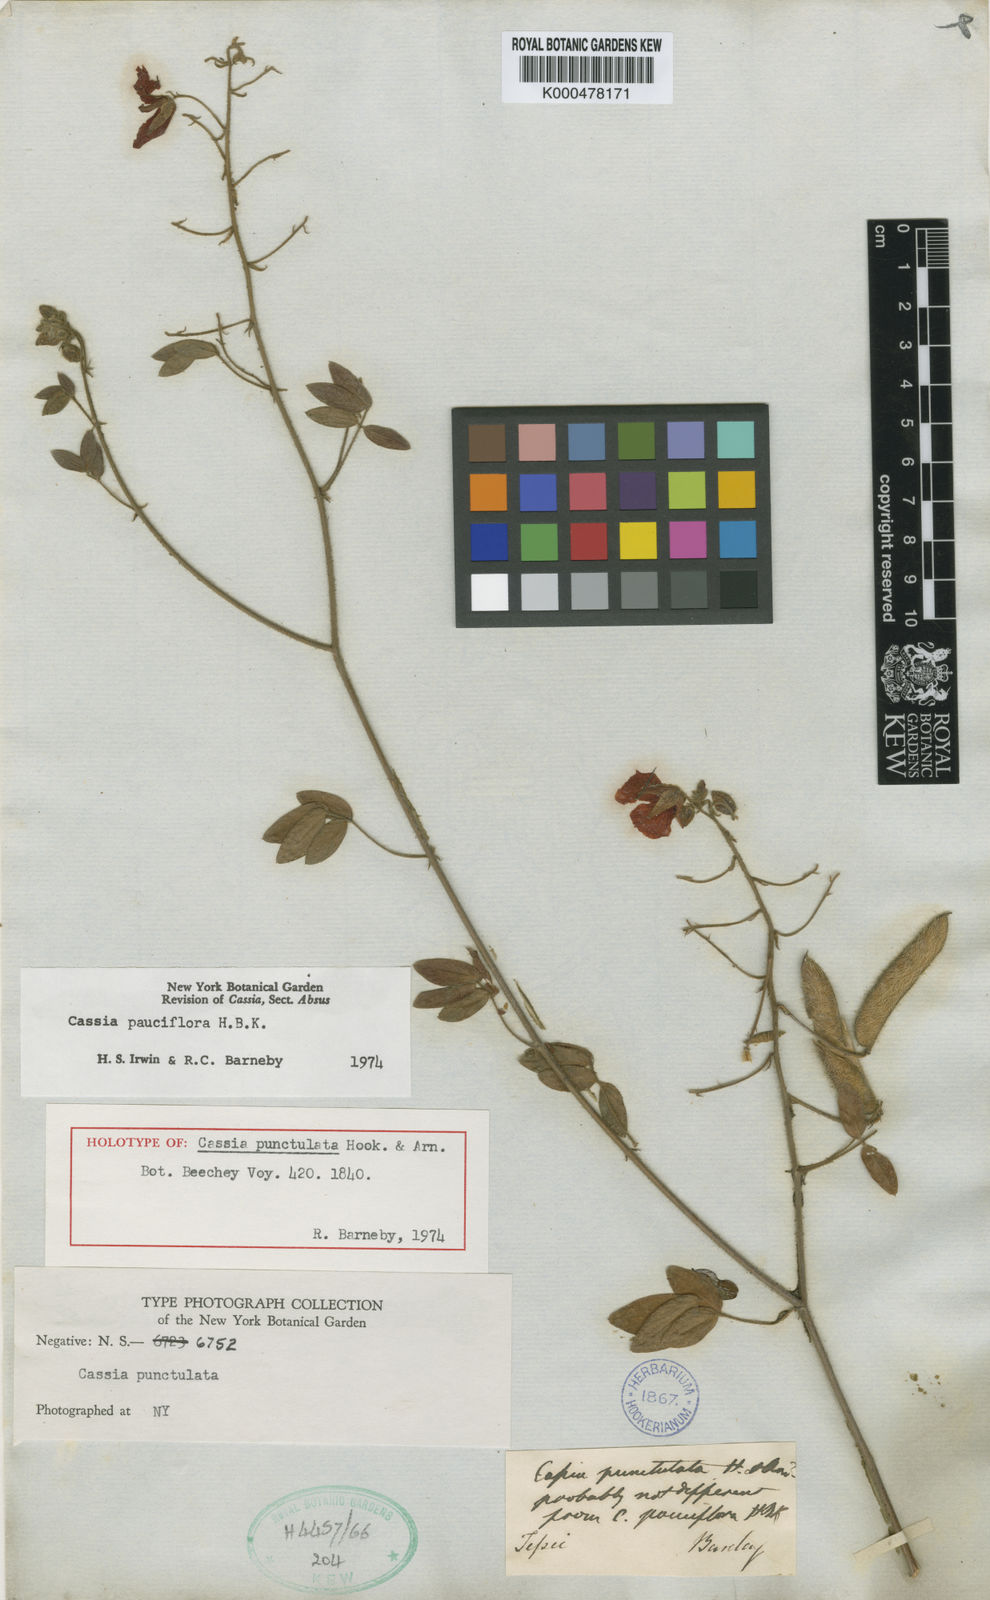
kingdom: Plantae
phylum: Tracheophyta
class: Magnoliopsida
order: Fabales
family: Fabaceae
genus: Chamaecrista
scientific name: Chamaecrista hispidula
